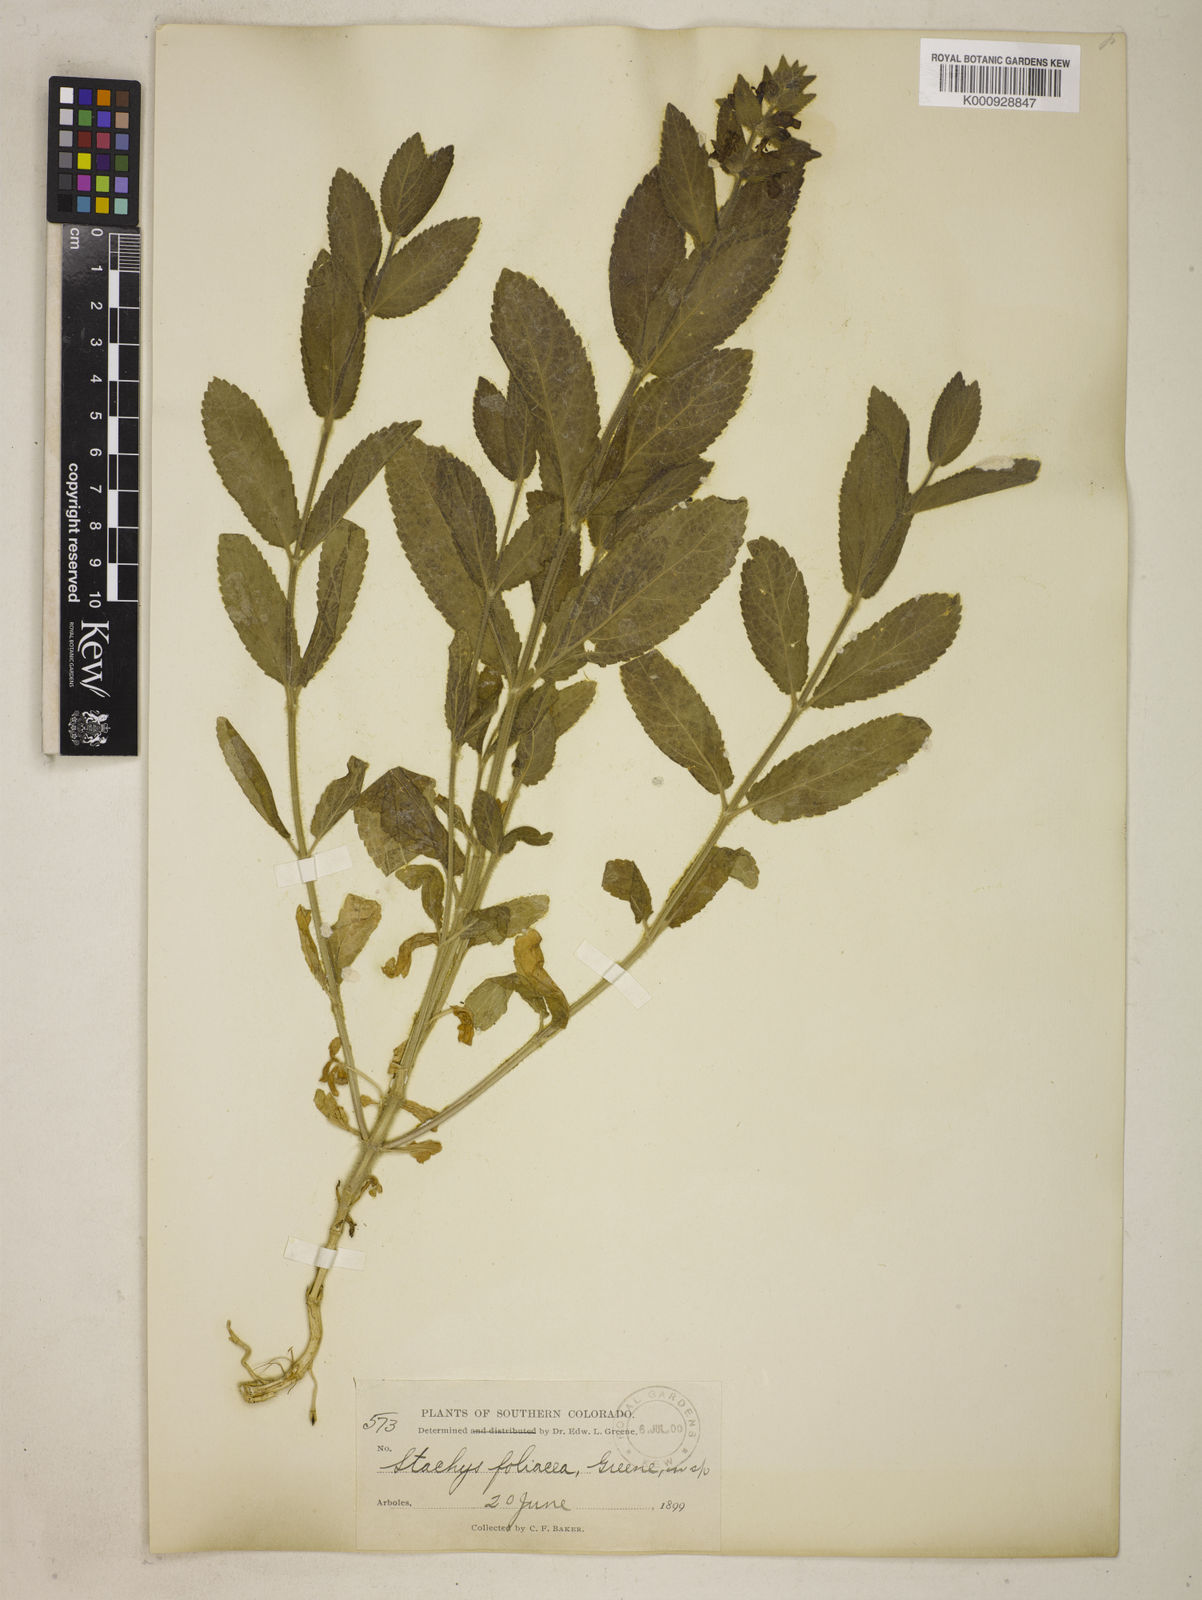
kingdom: Plantae
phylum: Tracheophyta
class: Magnoliopsida
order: Lamiales
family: Lamiaceae
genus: Stachys
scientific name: Stachys rigida
